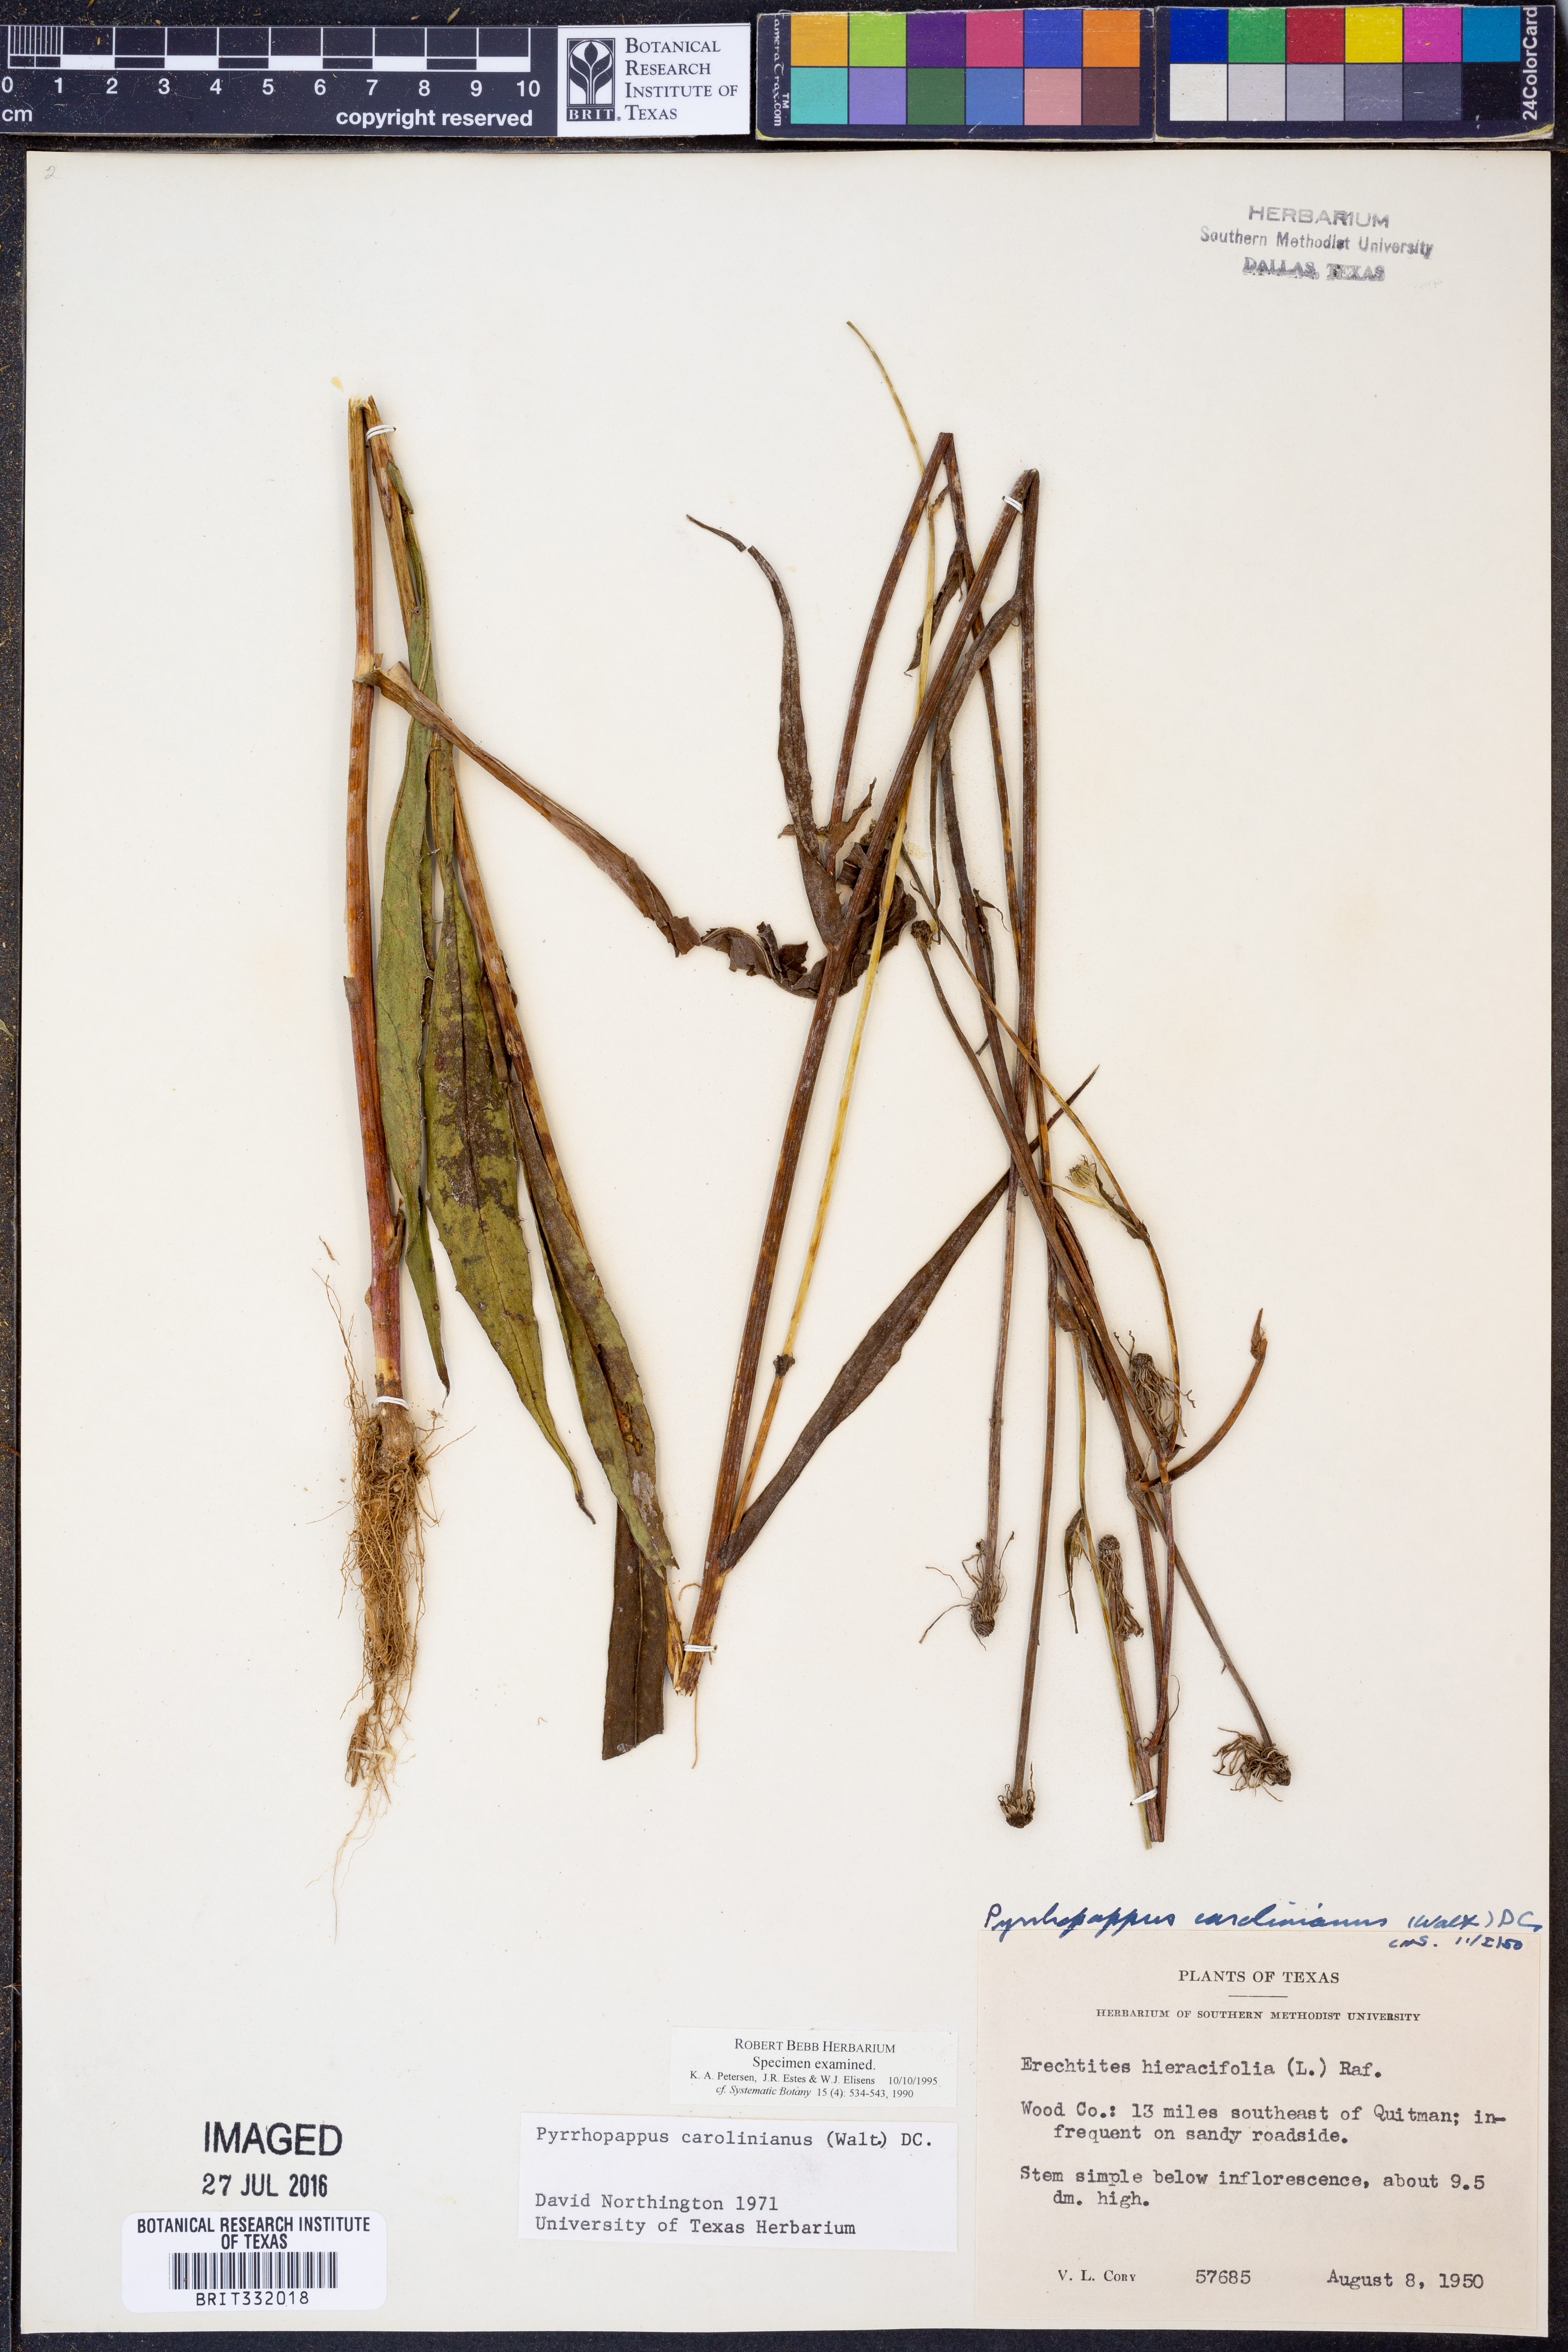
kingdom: Plantae
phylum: Tracheophyta
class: Magnoliopsida
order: Asterales
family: Asteraceae
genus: Pyrrhopappus
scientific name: Pyrrhopappus carolinianus
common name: Carolina desert-chicory
